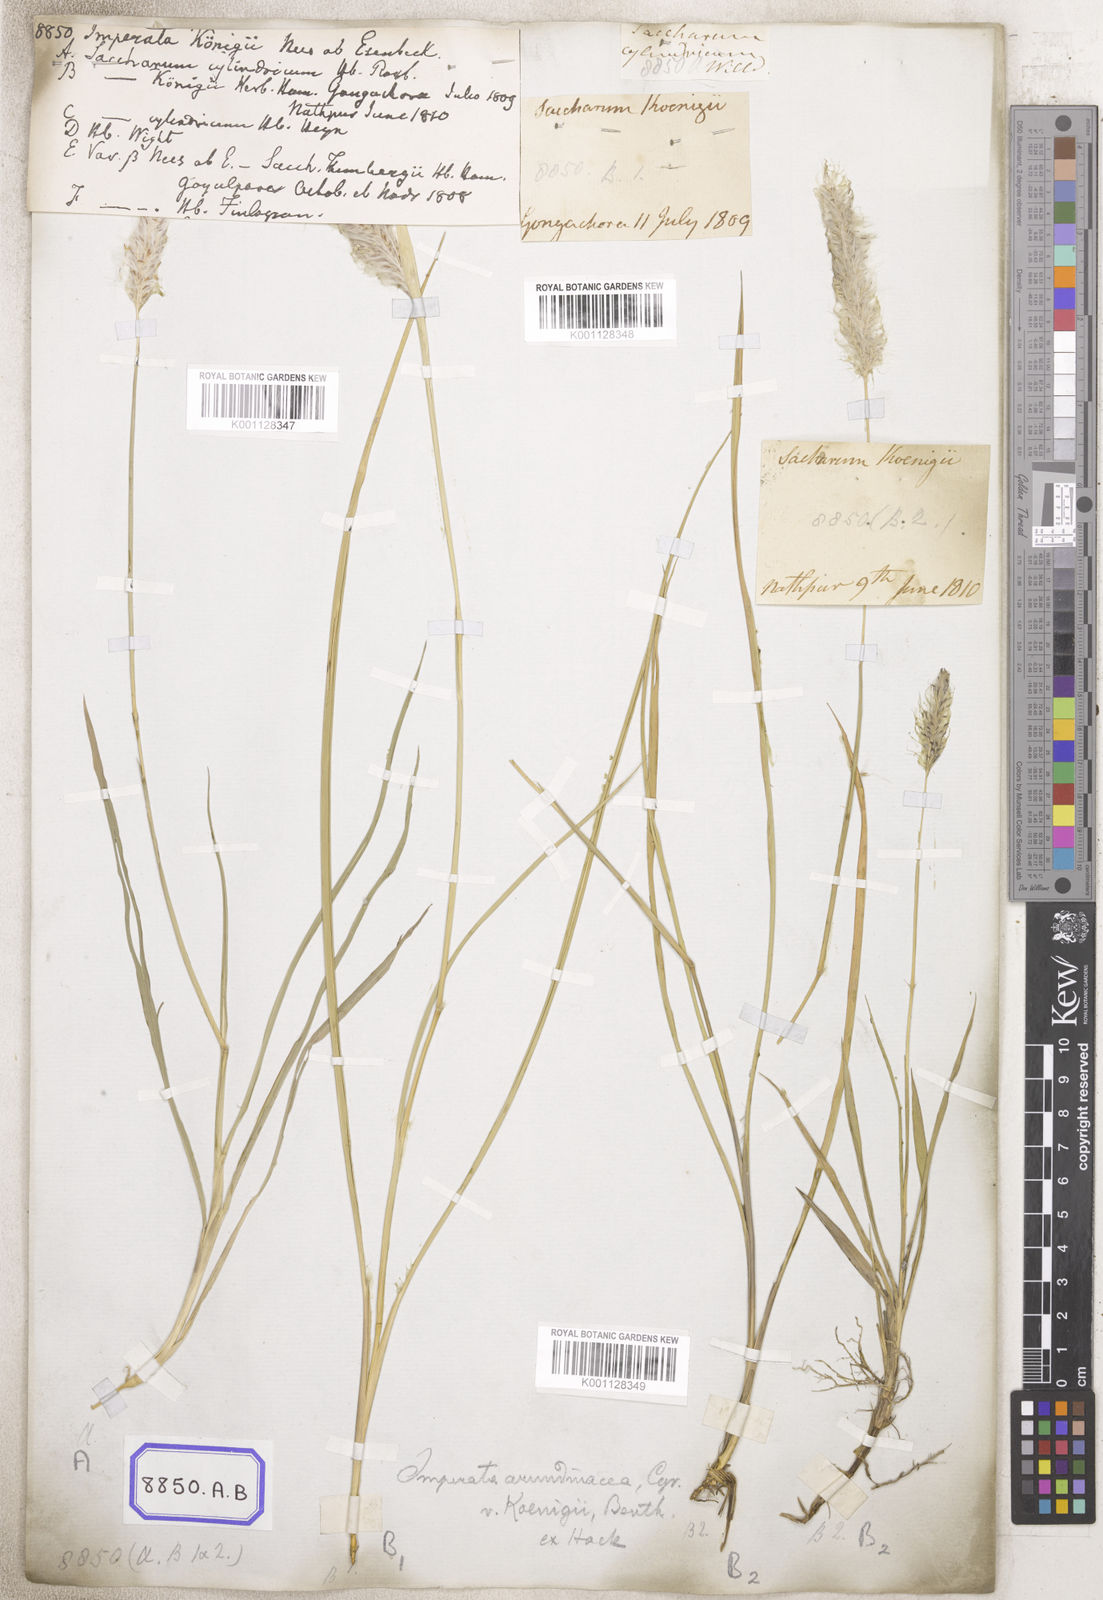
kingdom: Plantae
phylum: Tracheophyta
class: Liliopsida
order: Poales
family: Poaceae
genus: Imperata
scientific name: Imperata cylindrica
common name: Cogongrass
